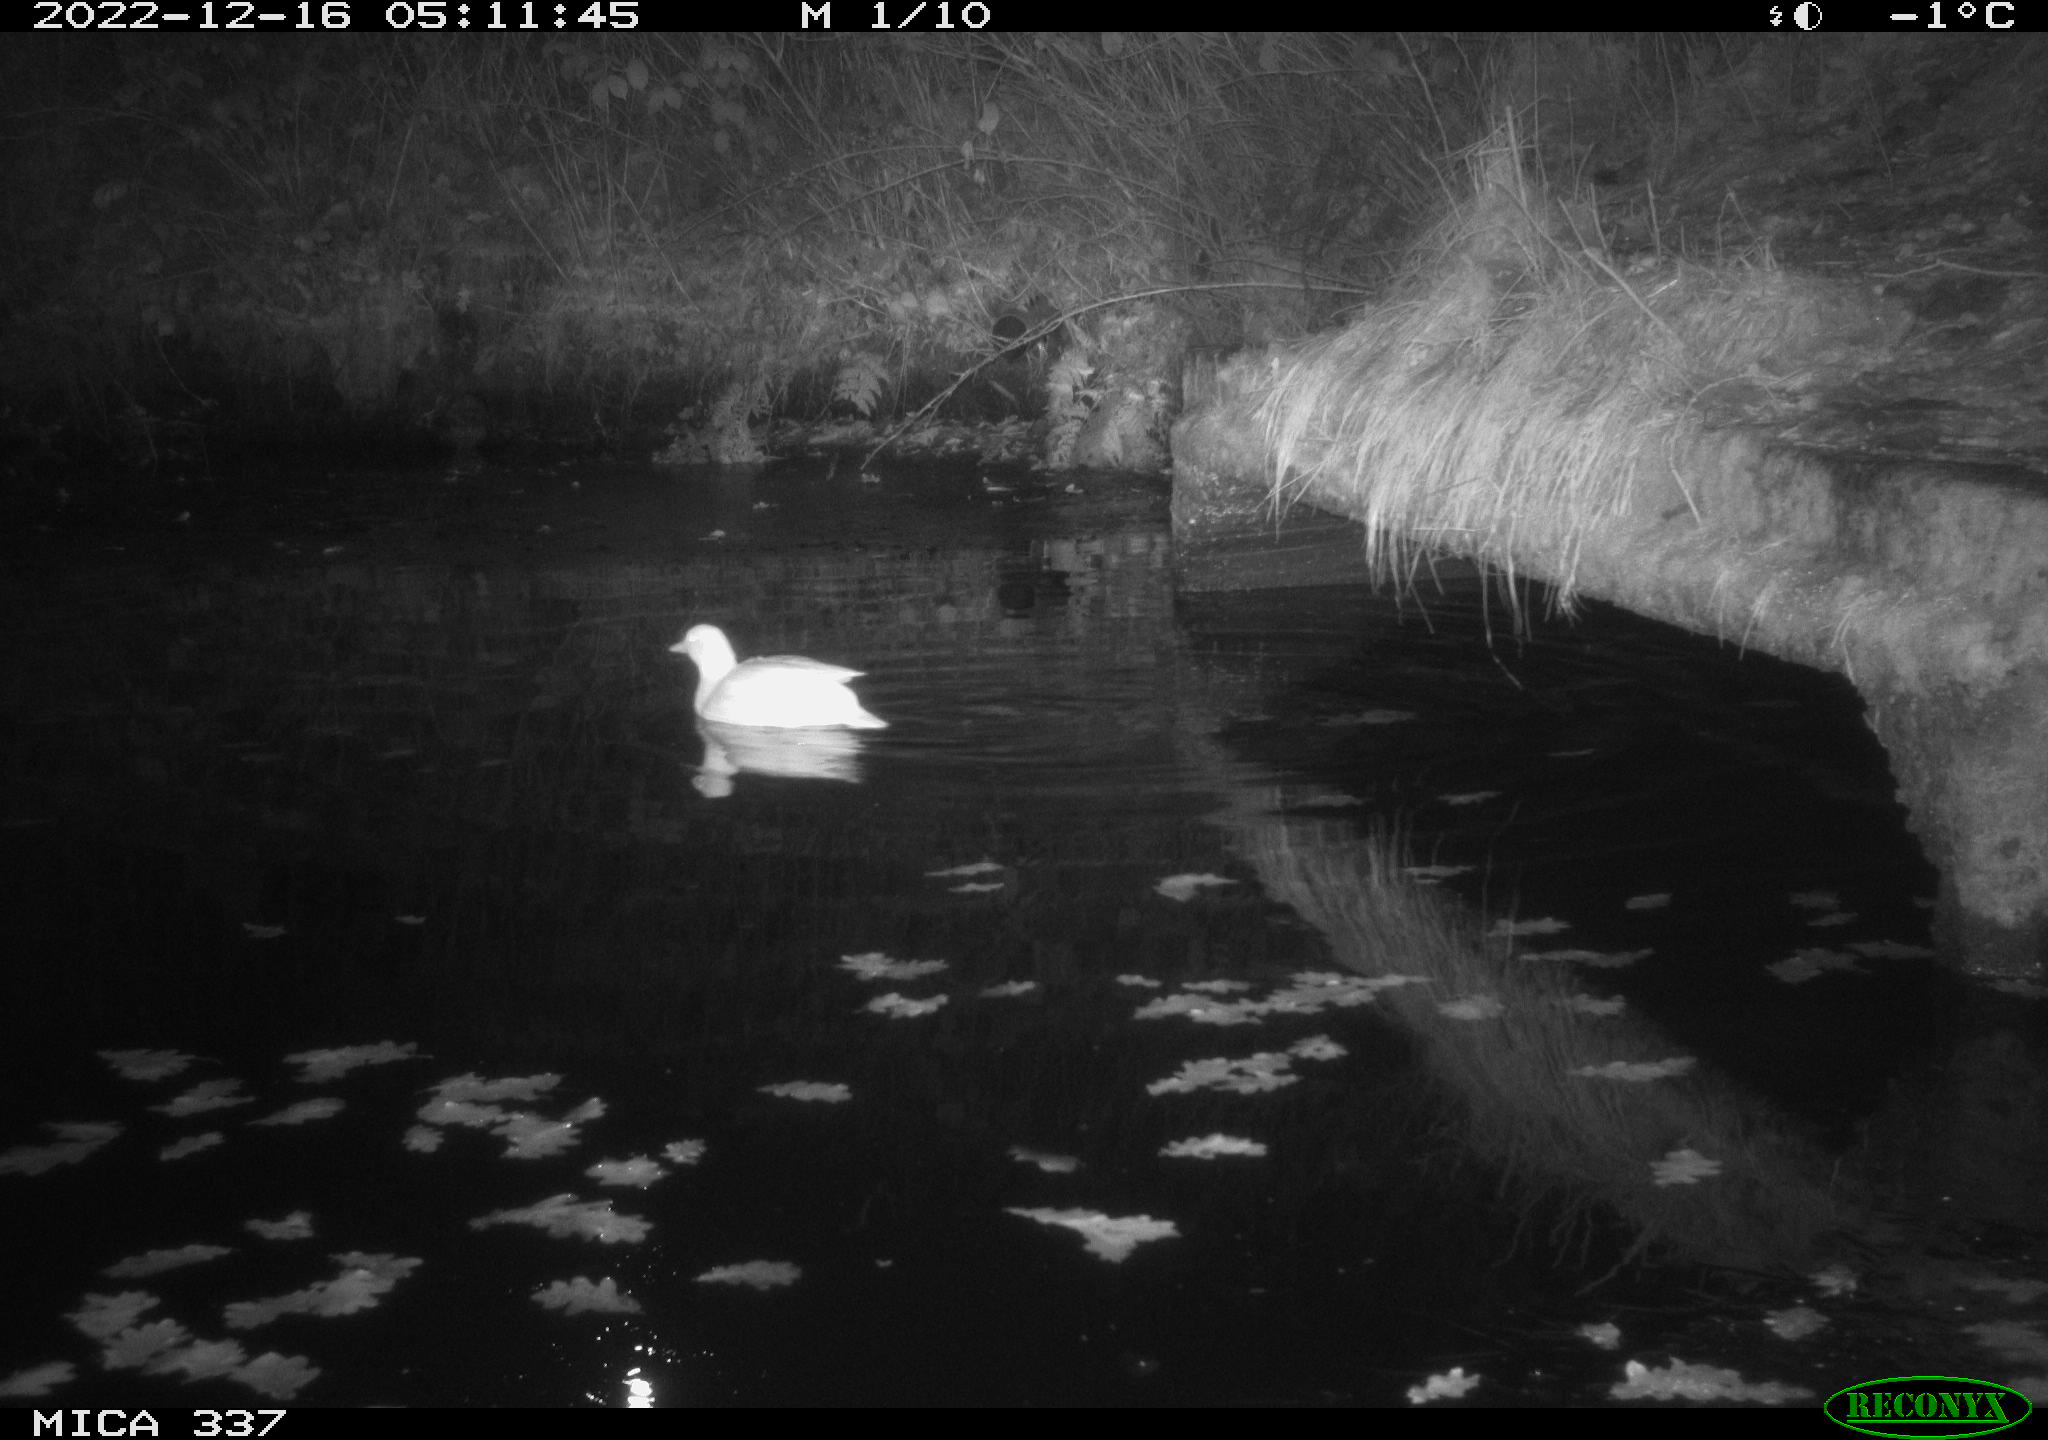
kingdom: Animalia
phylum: Chordata
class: Aves
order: Anseriformes
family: Anatidae
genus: Anas
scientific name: Anas
